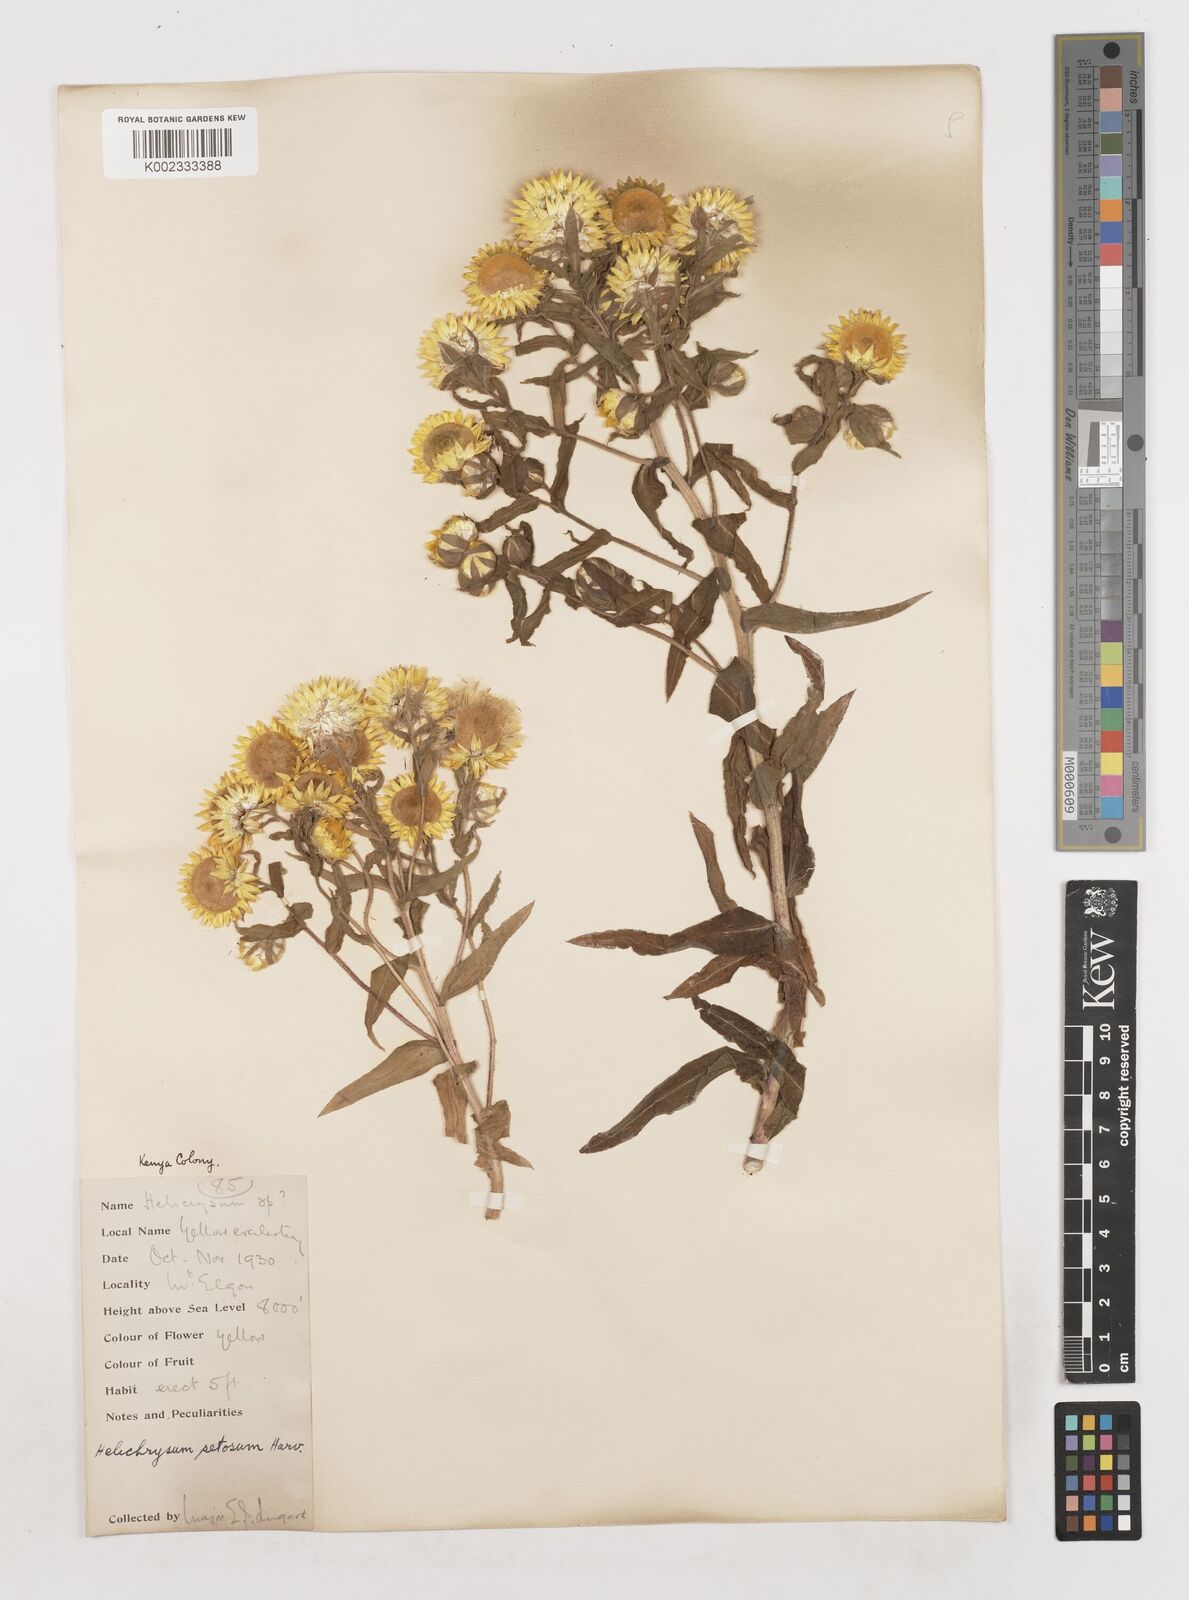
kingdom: Plantae
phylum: Tracheophyta
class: Magnoliopsida
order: Asterales
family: Asteraceae
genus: Helichrysum
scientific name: Helichrysum setosum
